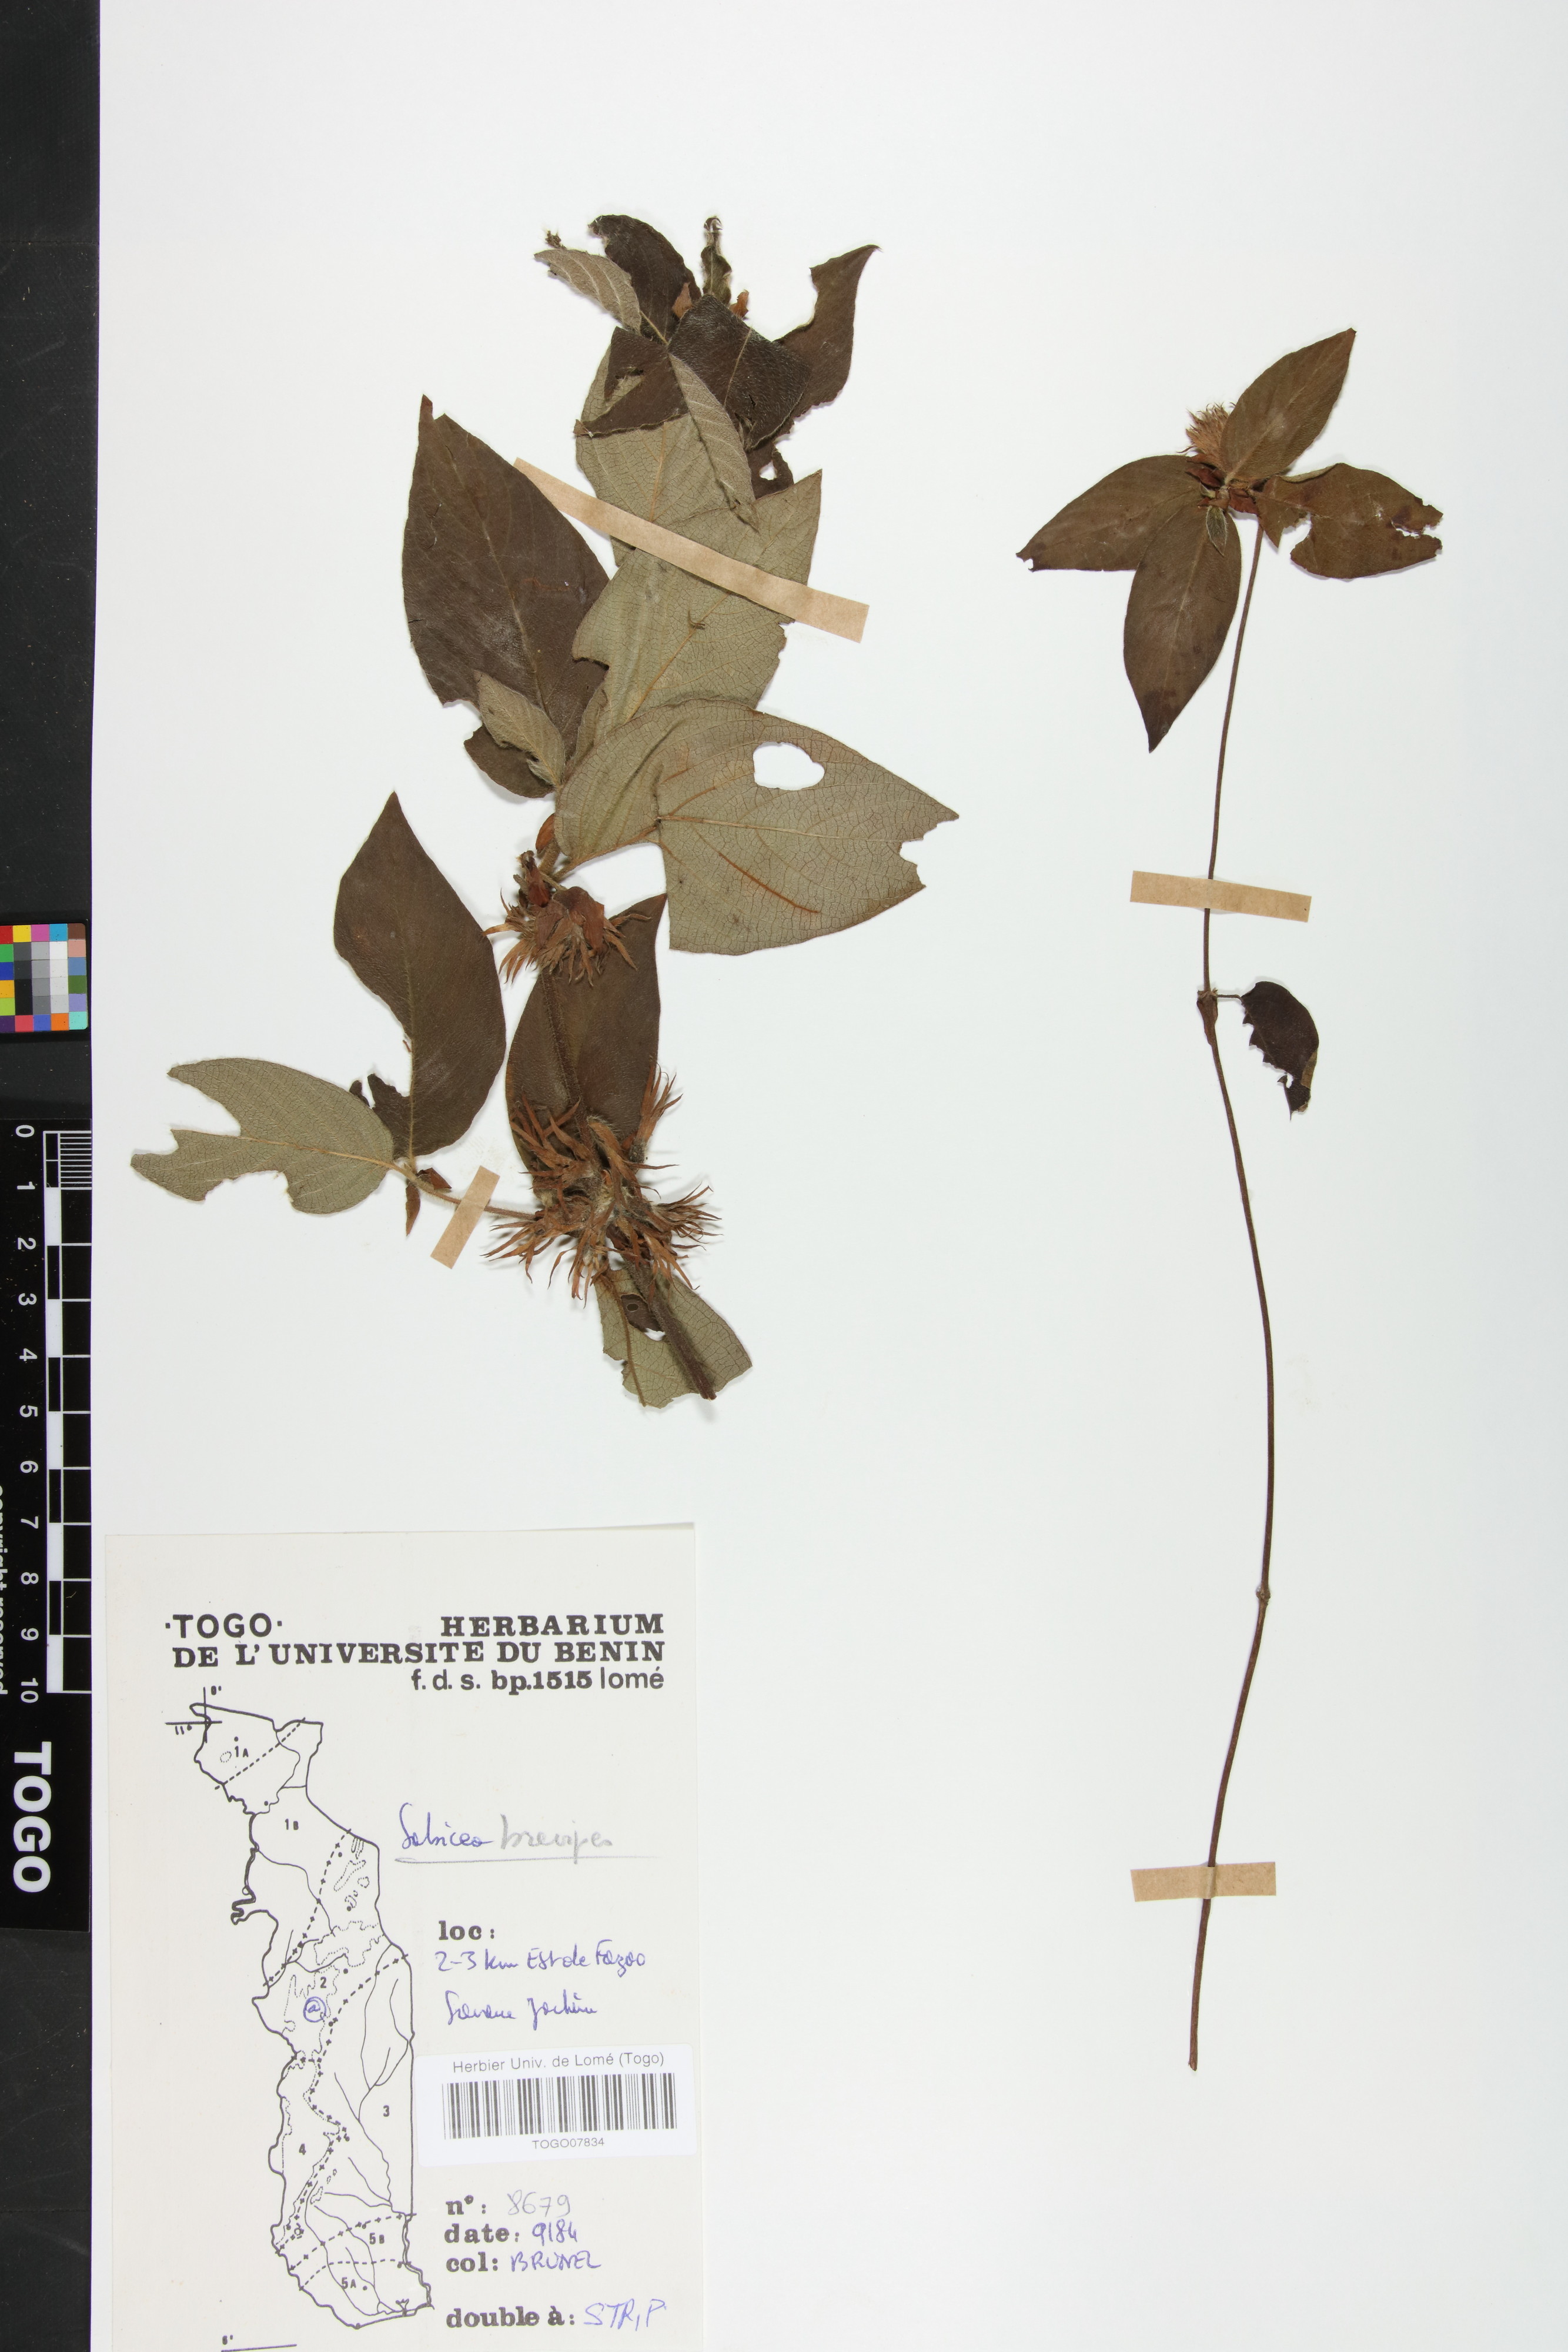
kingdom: Plantae
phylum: Tracheophyta
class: Magnoliopsida
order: Gentianales
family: Rubiaceae
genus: Sabicea
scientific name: Sabicea brevipes
